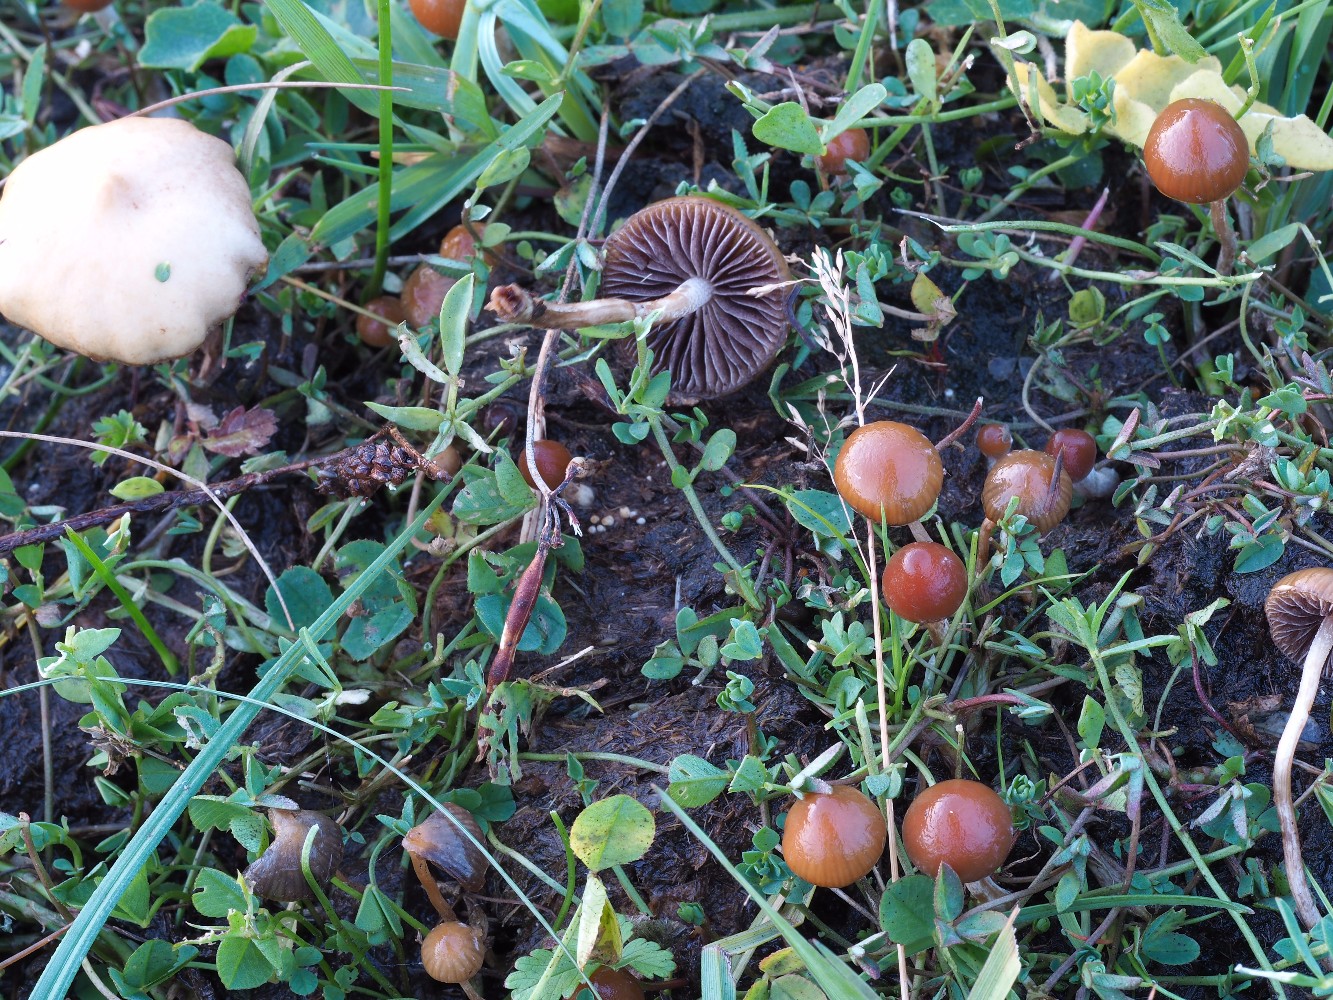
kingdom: Fungi
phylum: Basidiomycota
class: Agaricomycetes
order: Agaricales
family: Hymenogastraceae
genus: Psilocybe
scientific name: Psilocybe fimetaria
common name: prægtig nøgenhat
